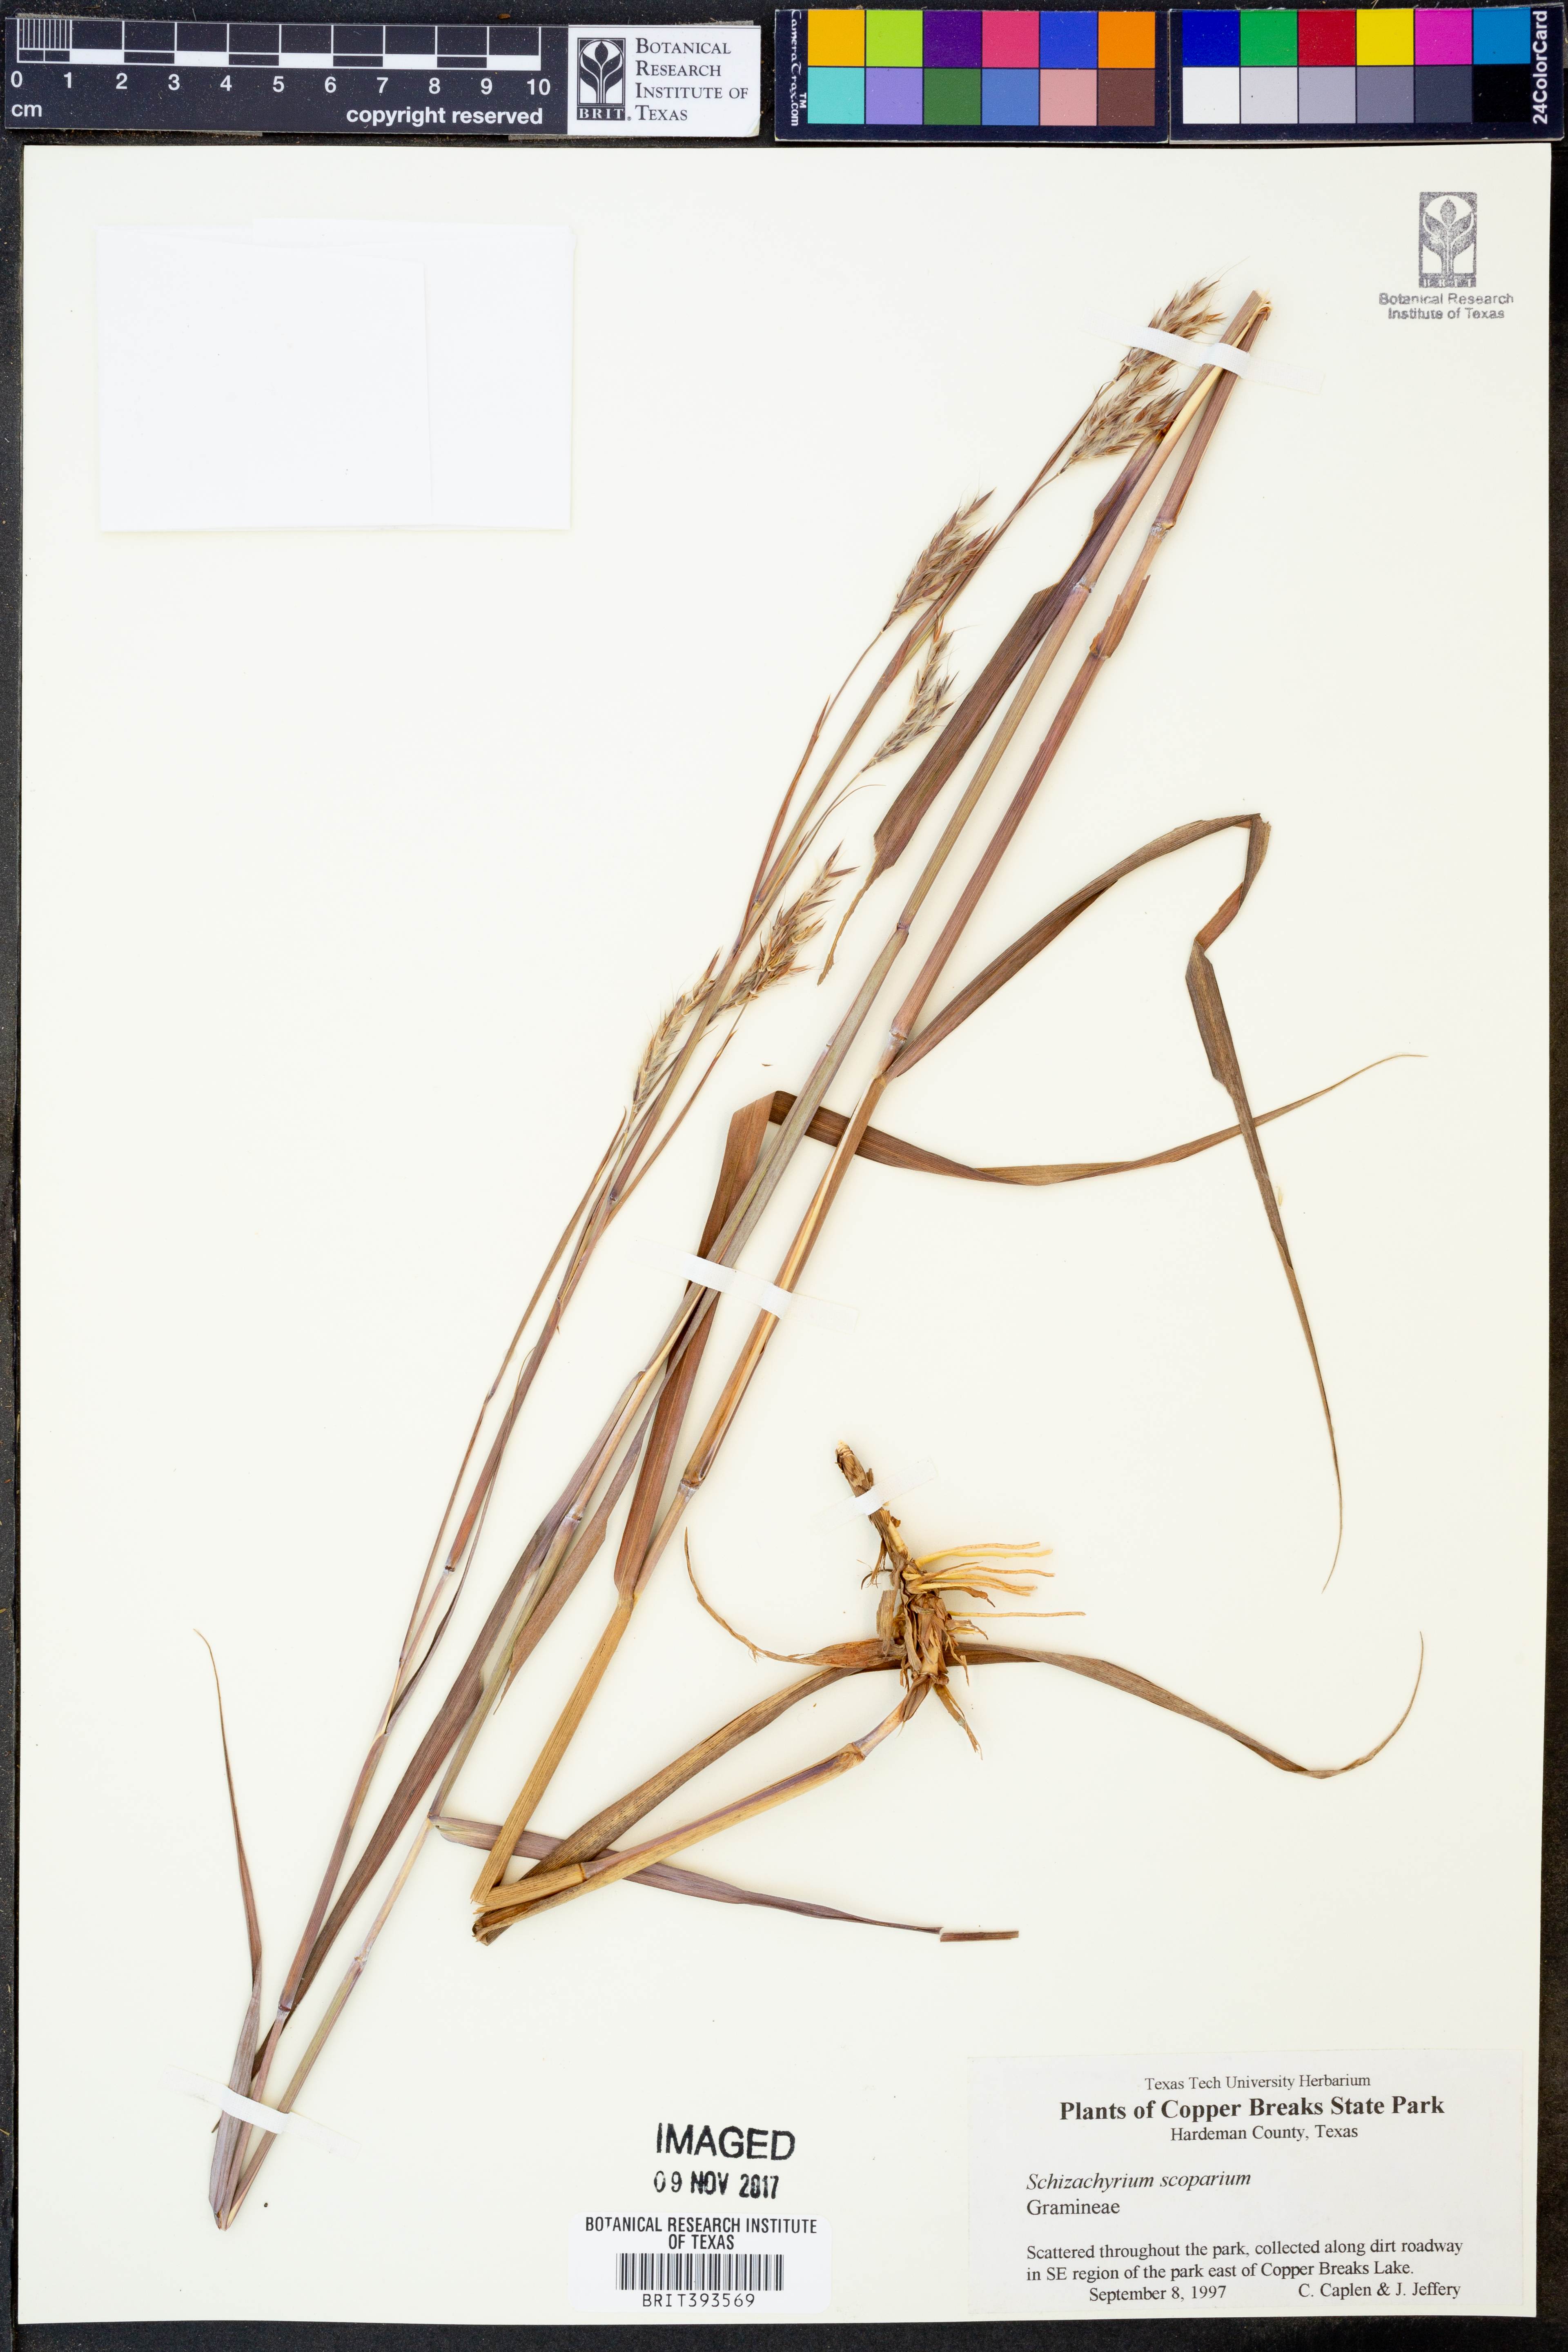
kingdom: Plantae
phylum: Tracheophyta
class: Liliopsida
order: Poales
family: Poaceae
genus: Schizachyrium
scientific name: Schizachyrium scoparium
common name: Little bluestem
